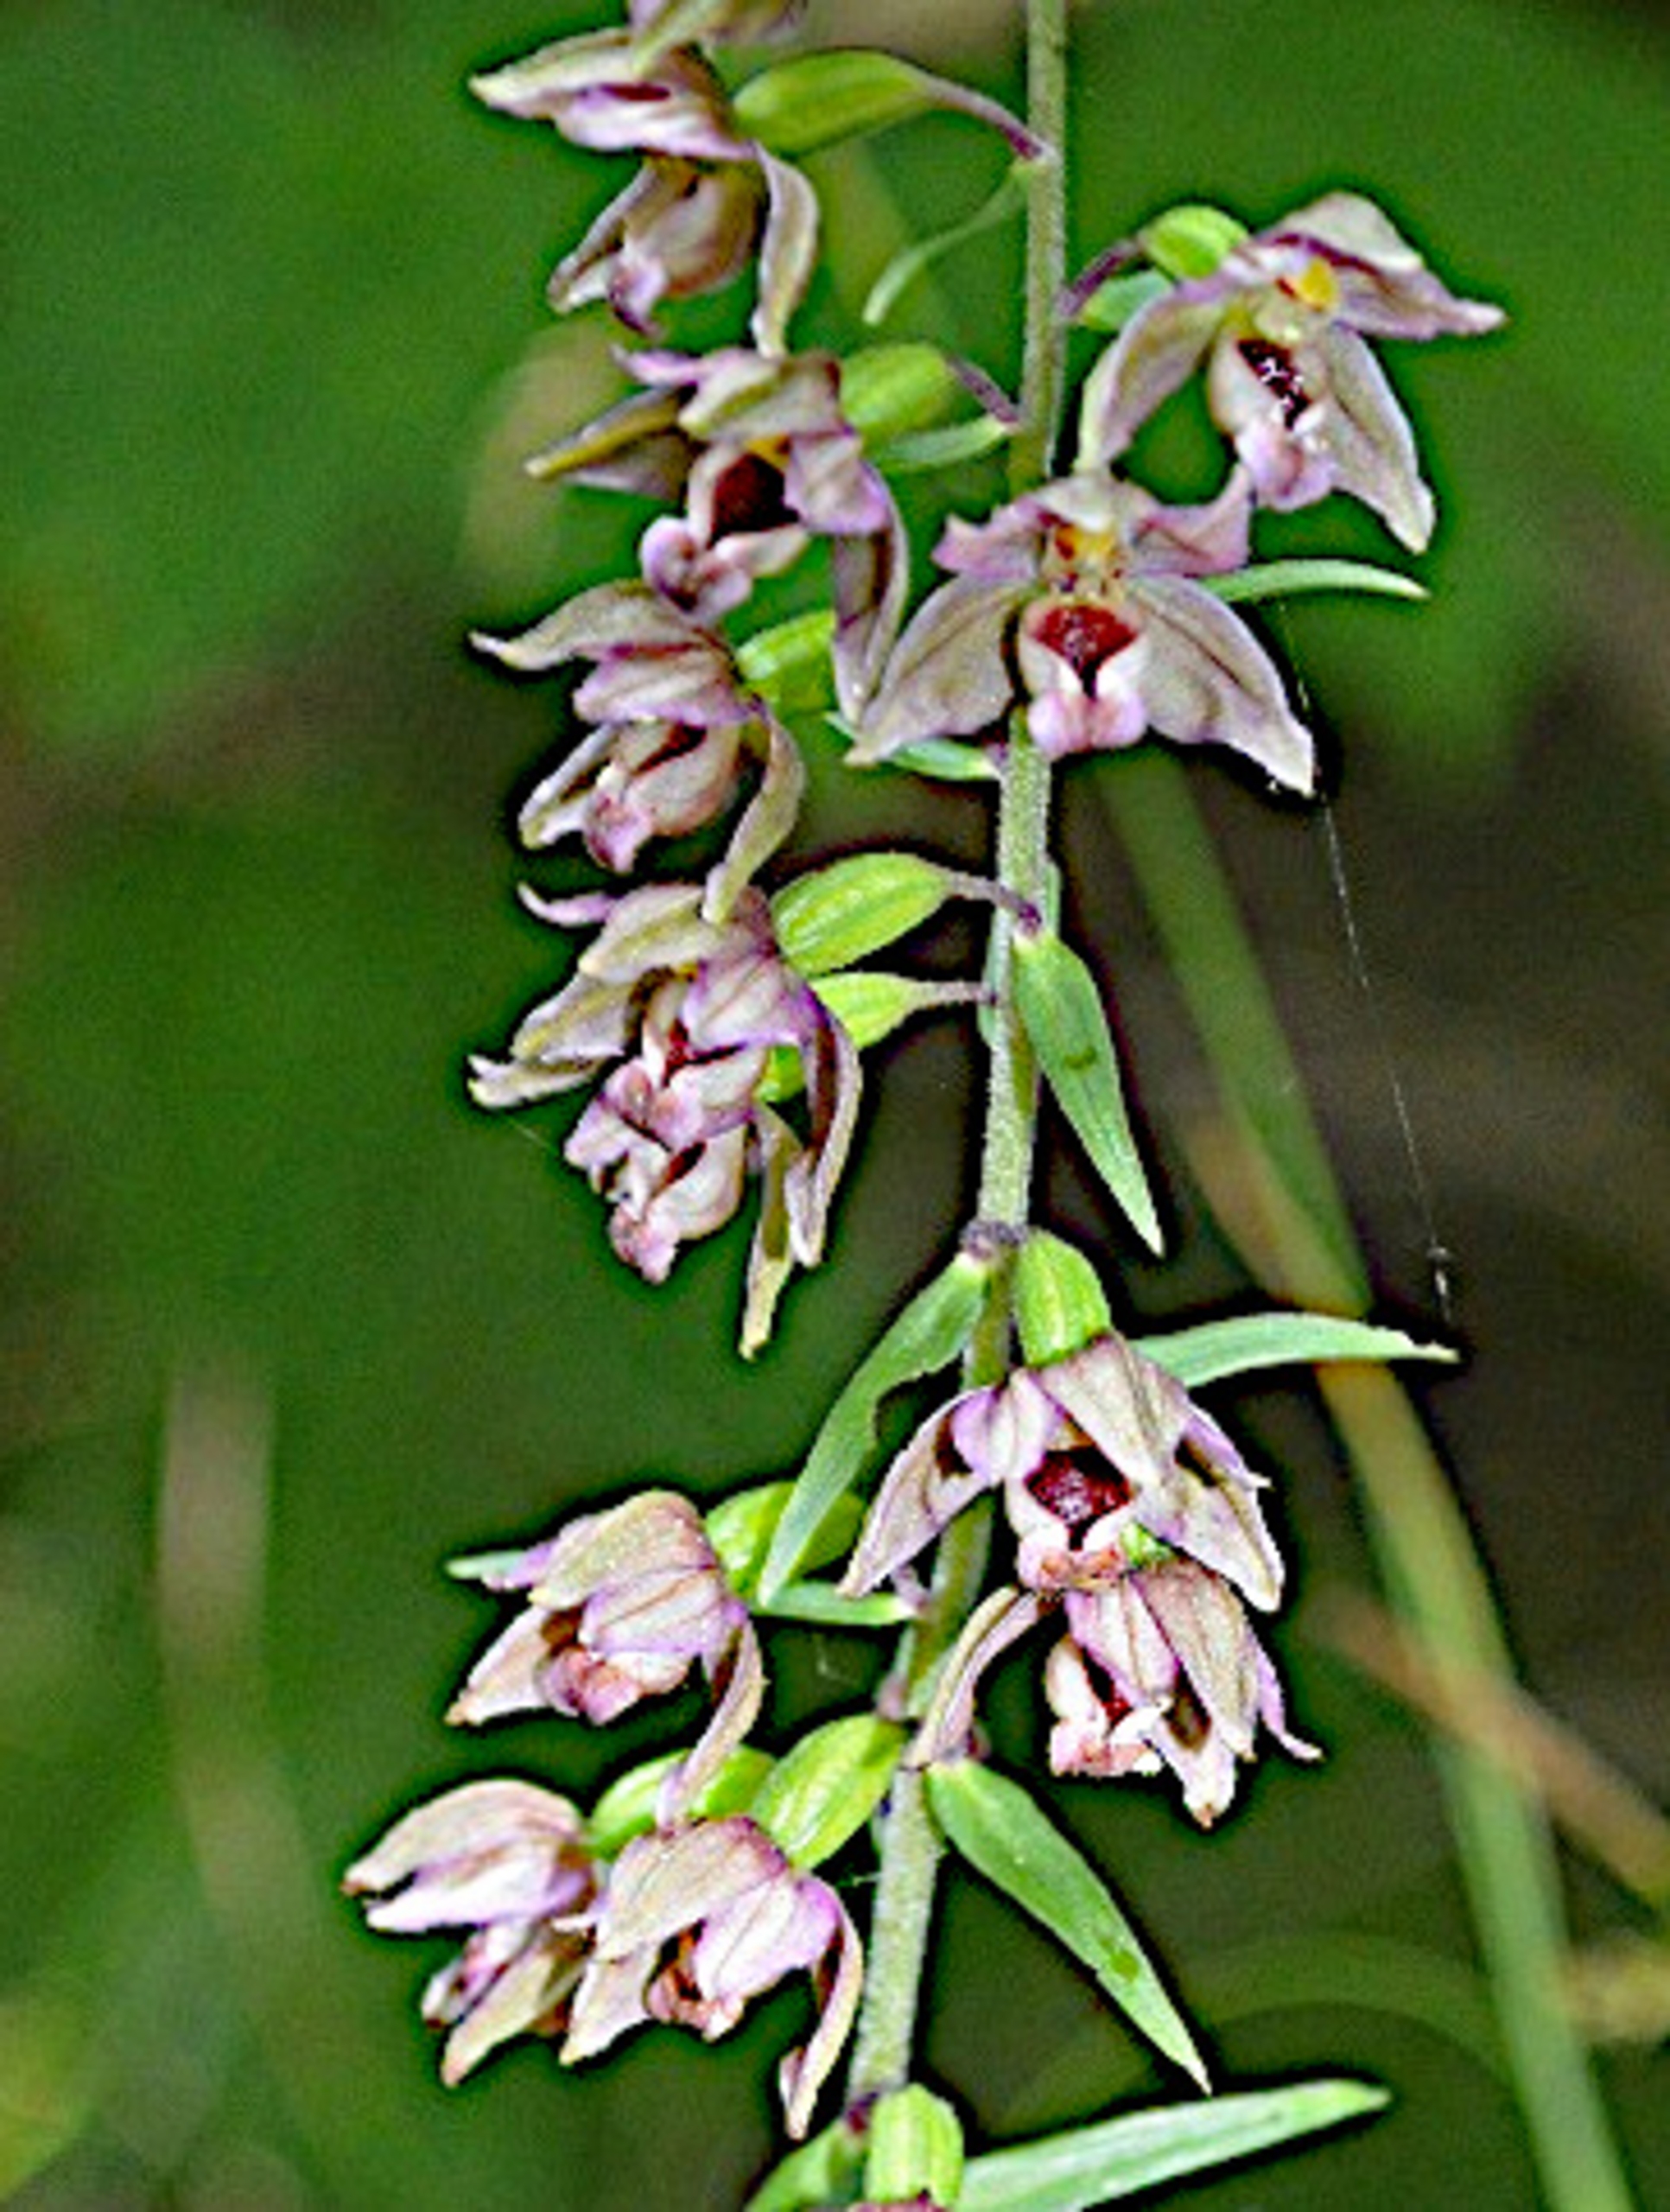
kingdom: Plantae
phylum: Tracheophyta
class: Liliopsida
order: Asparagales
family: Orchidaceae
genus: Epipactis
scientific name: Epipactis helleborine
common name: Hollandsk hullæbe
